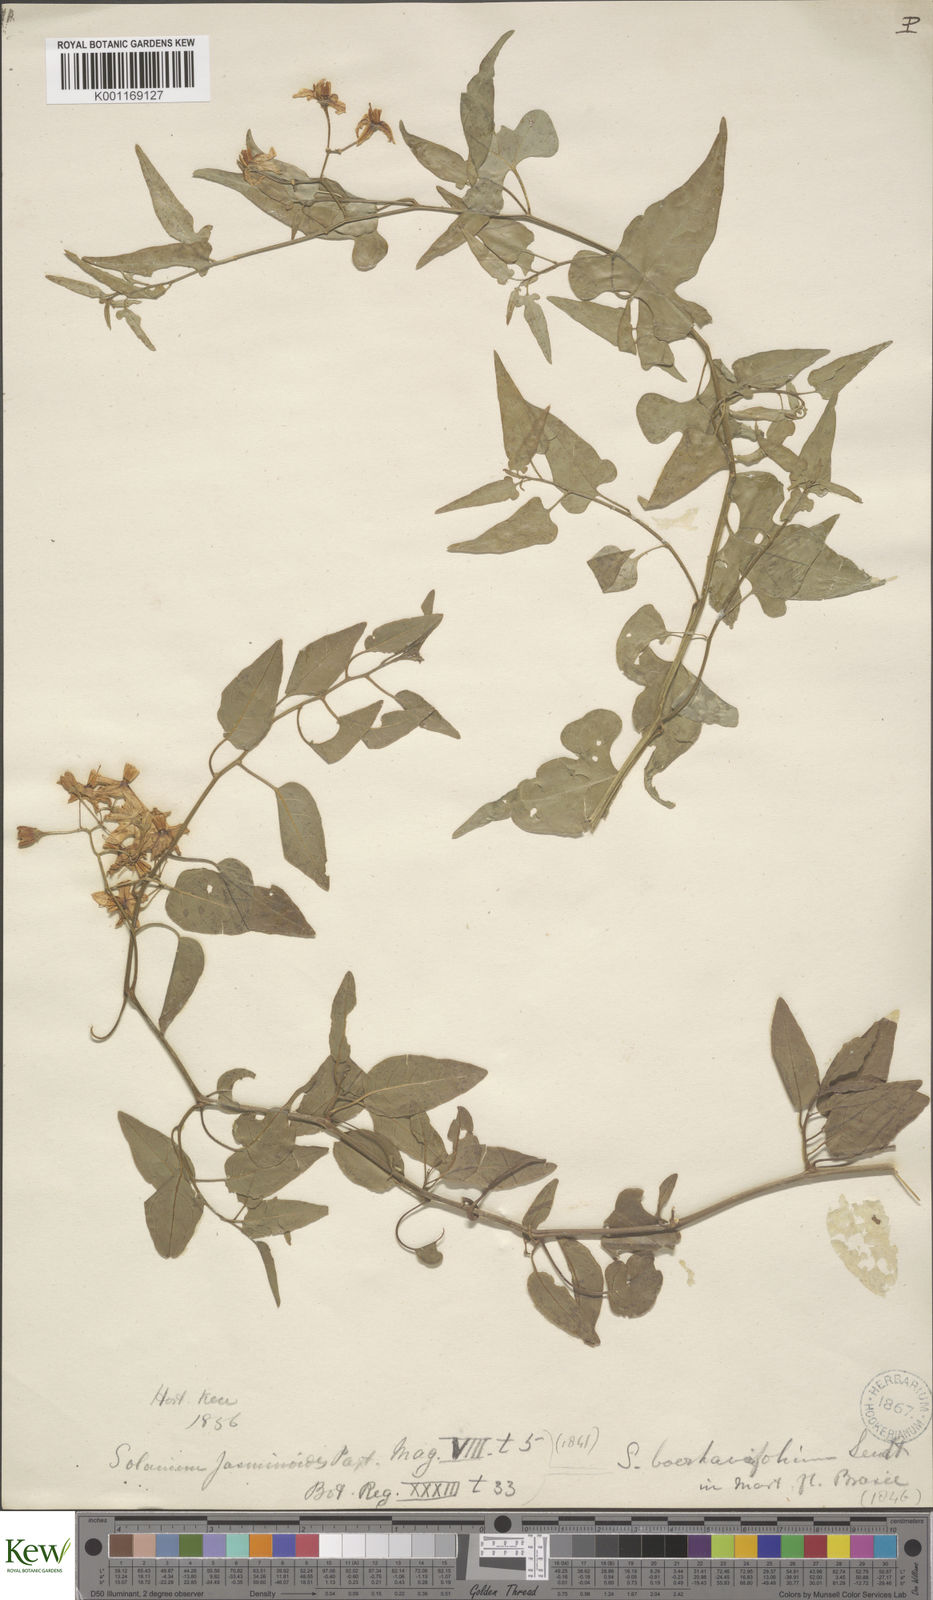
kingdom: Plantae
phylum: Tracheophyta
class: Magnoliopsida
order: Solanales
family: Solanaceae
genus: Solanum
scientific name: Solanum laxum
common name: Nightshade
